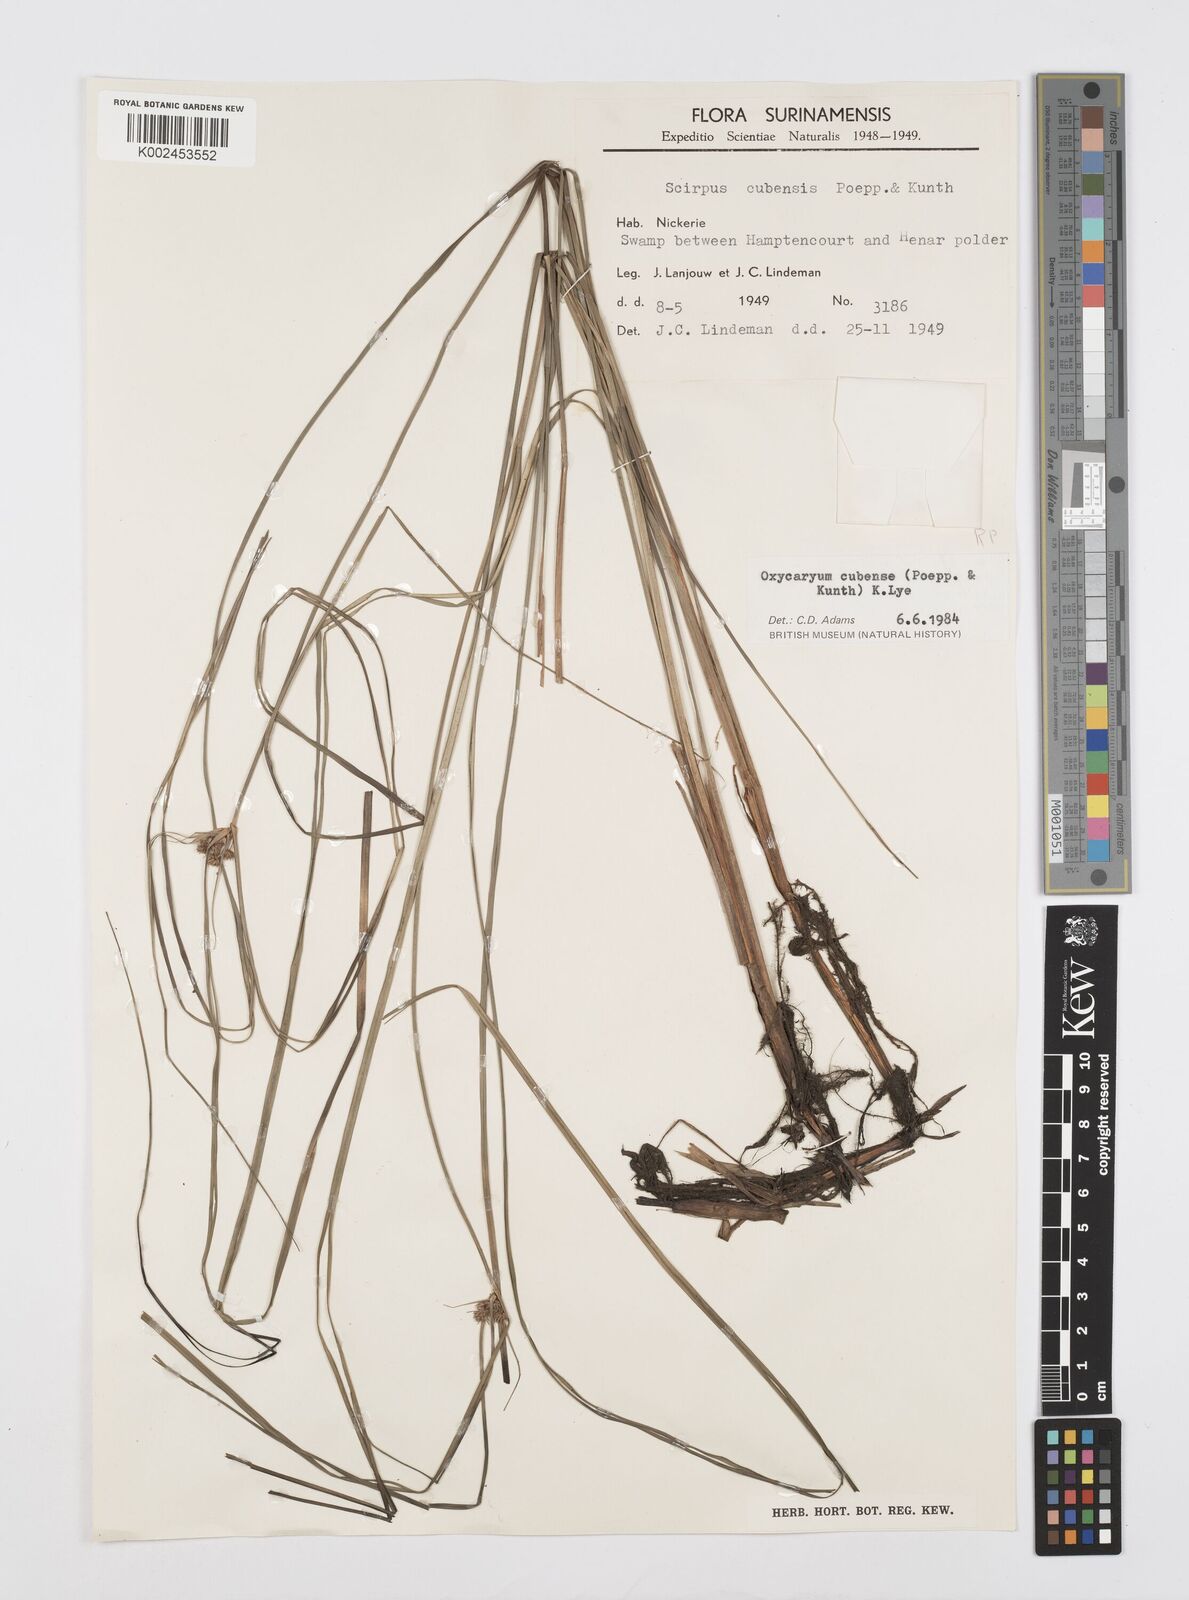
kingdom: Plantae
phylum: Tracheophyta
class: Liliopsida
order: Poales
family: Cyperaceae
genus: Cyperus
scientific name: Cyperus elegans
